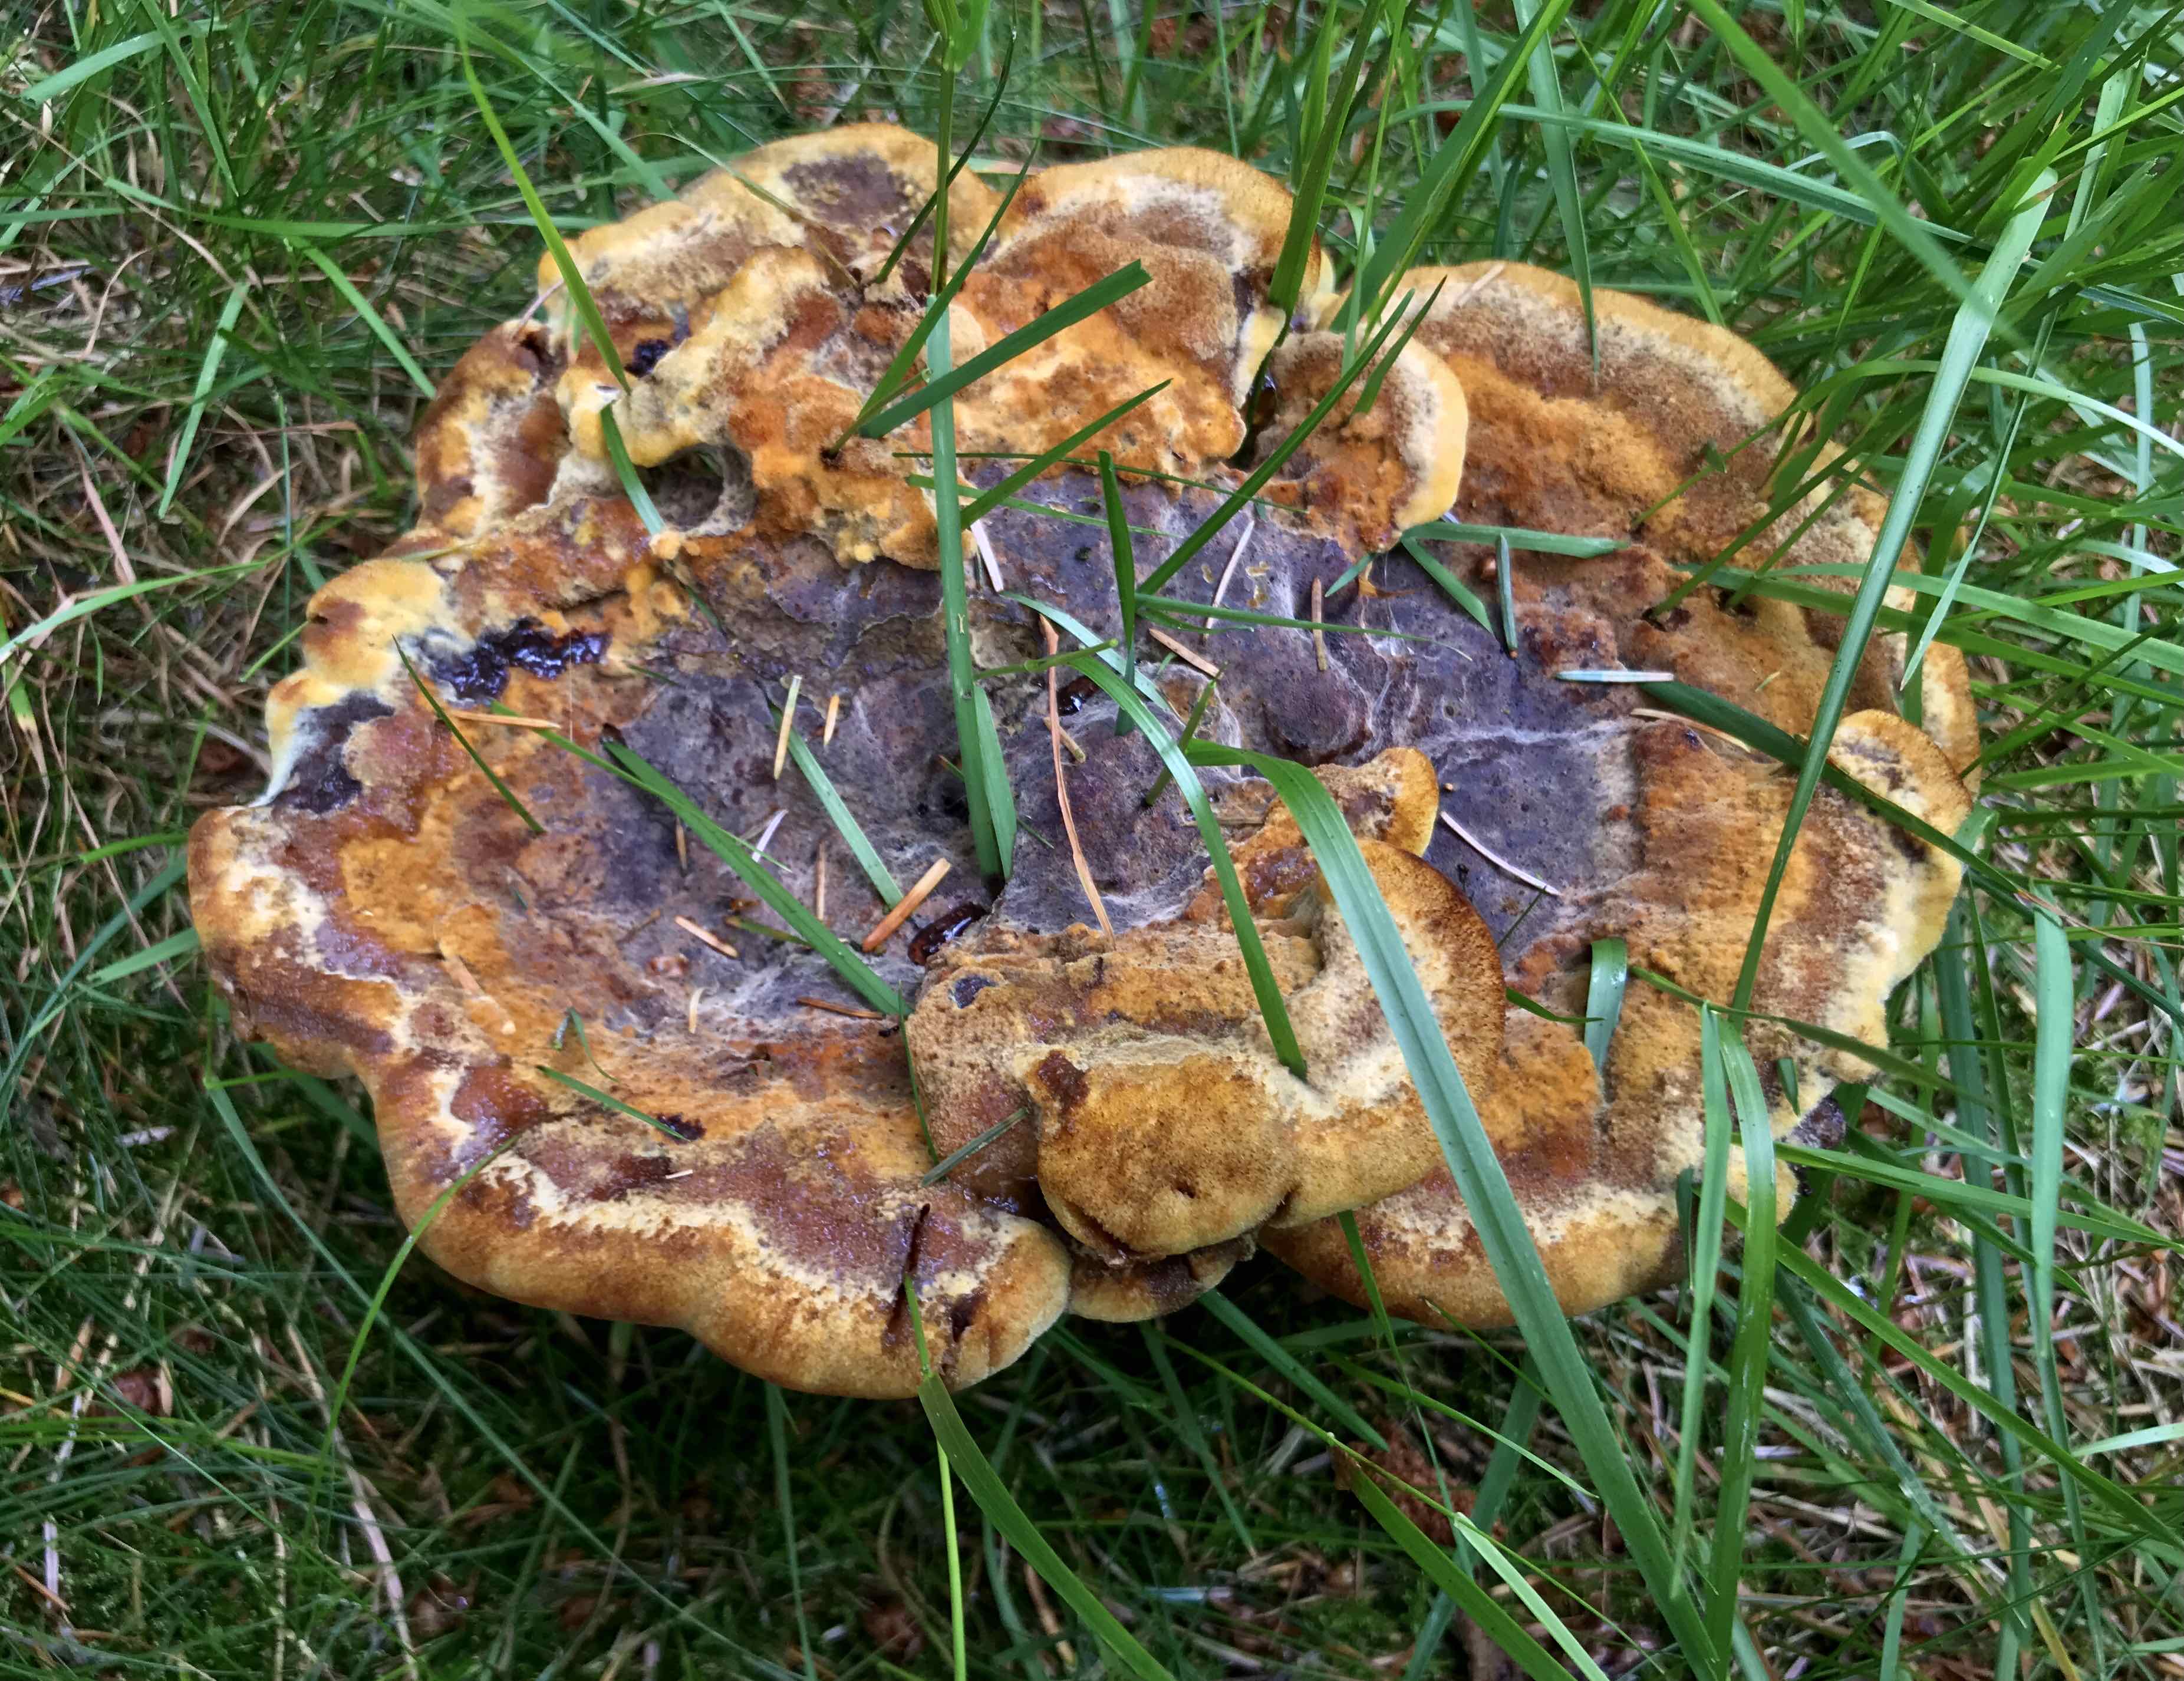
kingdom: Fungi
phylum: Basidiomycota
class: Agaricomycetes
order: Polyporales
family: Laetiporaceae
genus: Phaeolus
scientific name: Phaeolus schweinitzii
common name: brunporesvamp
